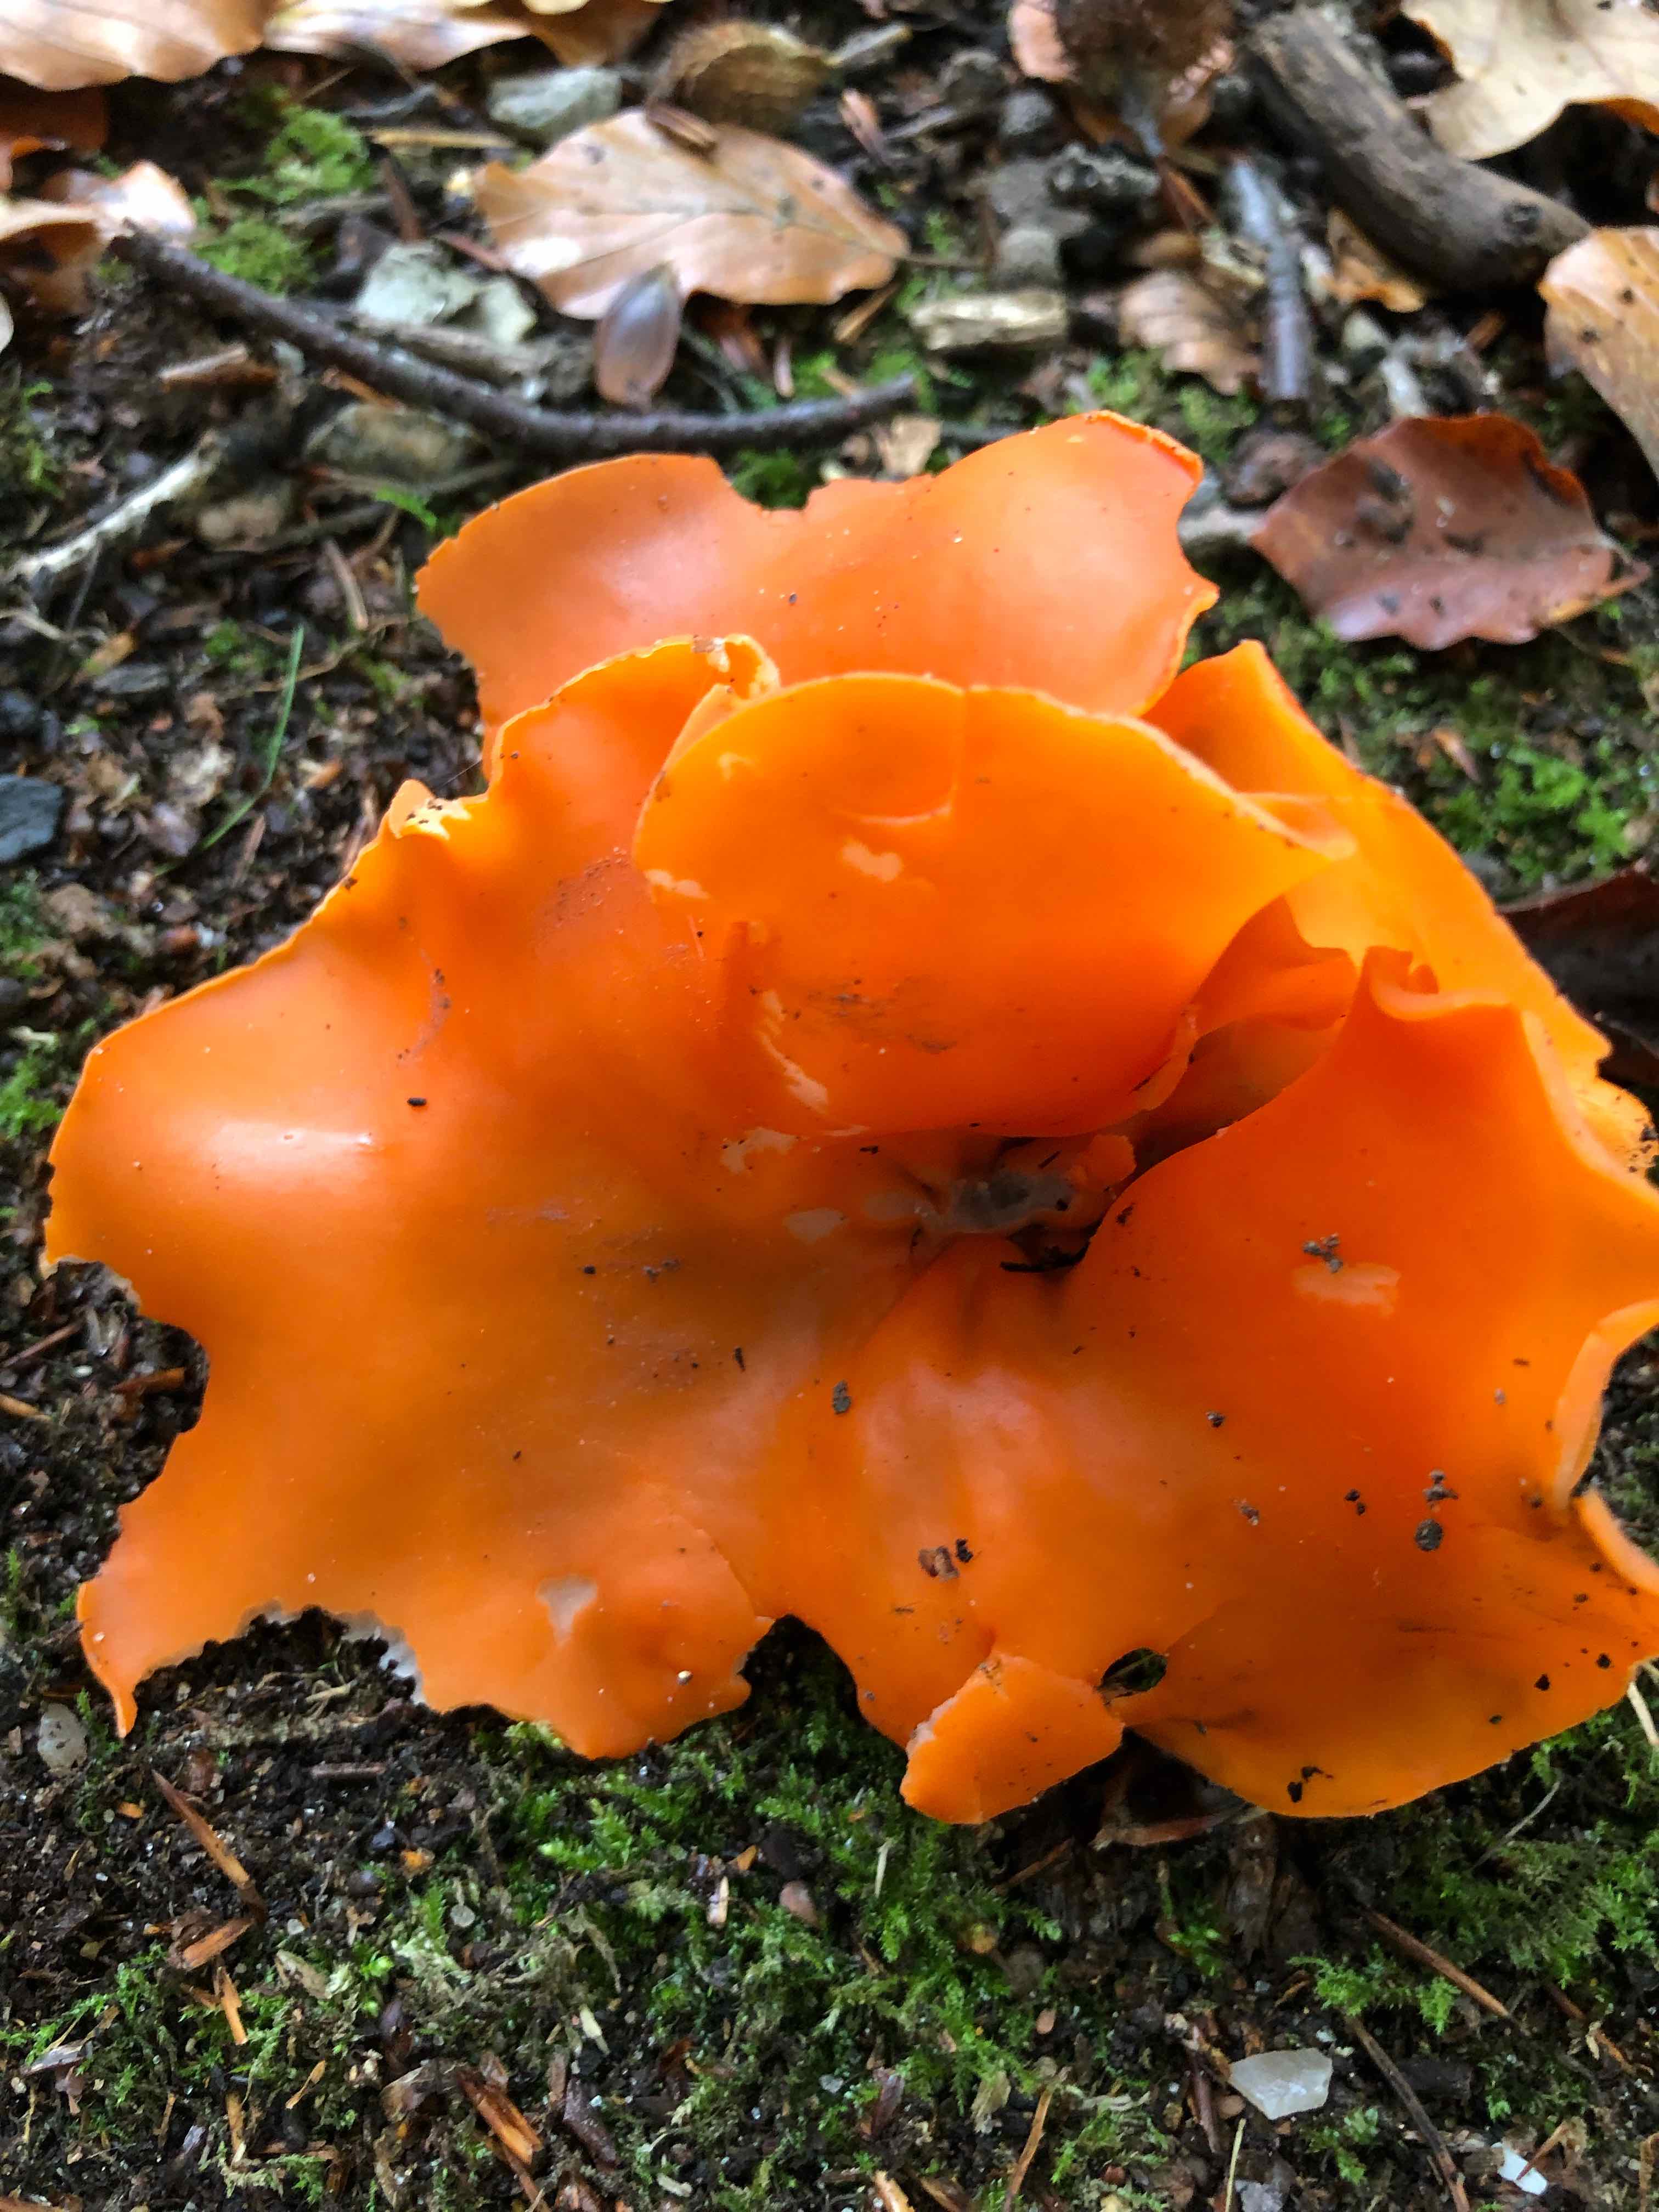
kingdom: Fungi
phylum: Ascomycota
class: Pezizomycetes
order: Pezizales
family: Pyronemataceae
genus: Aleuria
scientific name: Aleuria aurantia
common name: almindelig orangebæger
